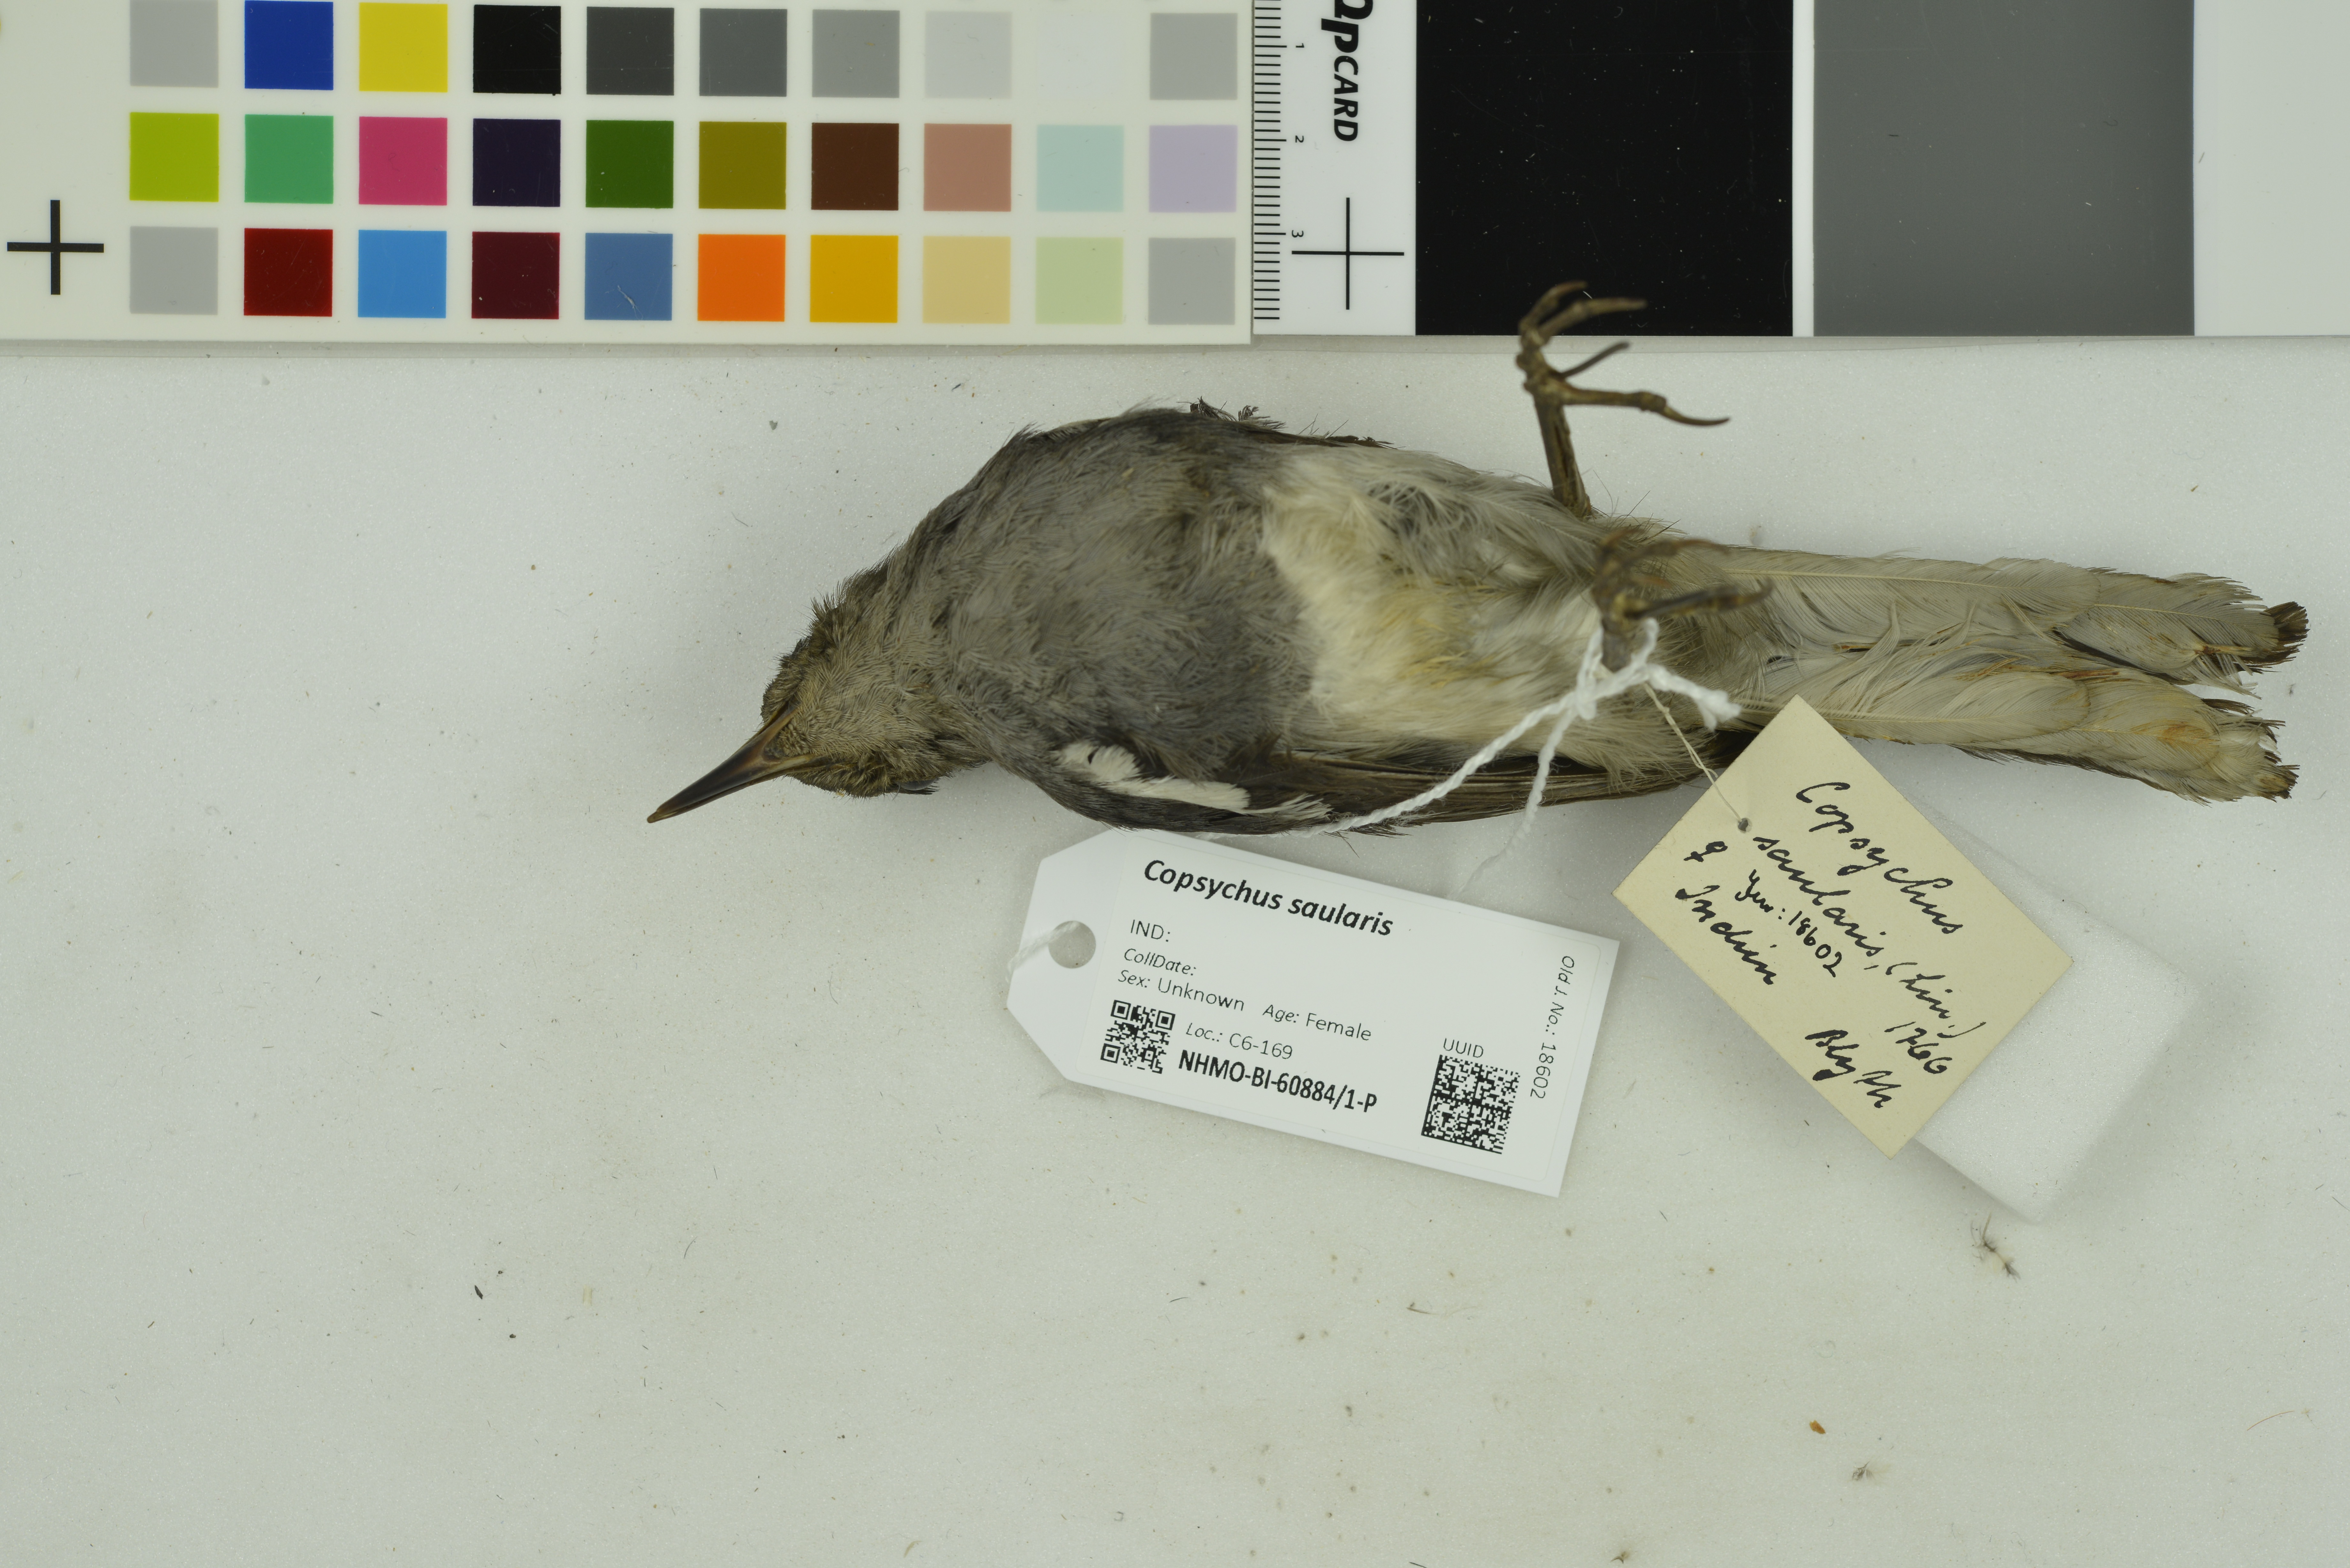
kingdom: Animalia
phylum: Chordata
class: Aves
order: Passeriformes
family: Muscicapidae
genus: Copsychus
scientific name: Copsychus saularis
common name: Oriental magpie-robin
